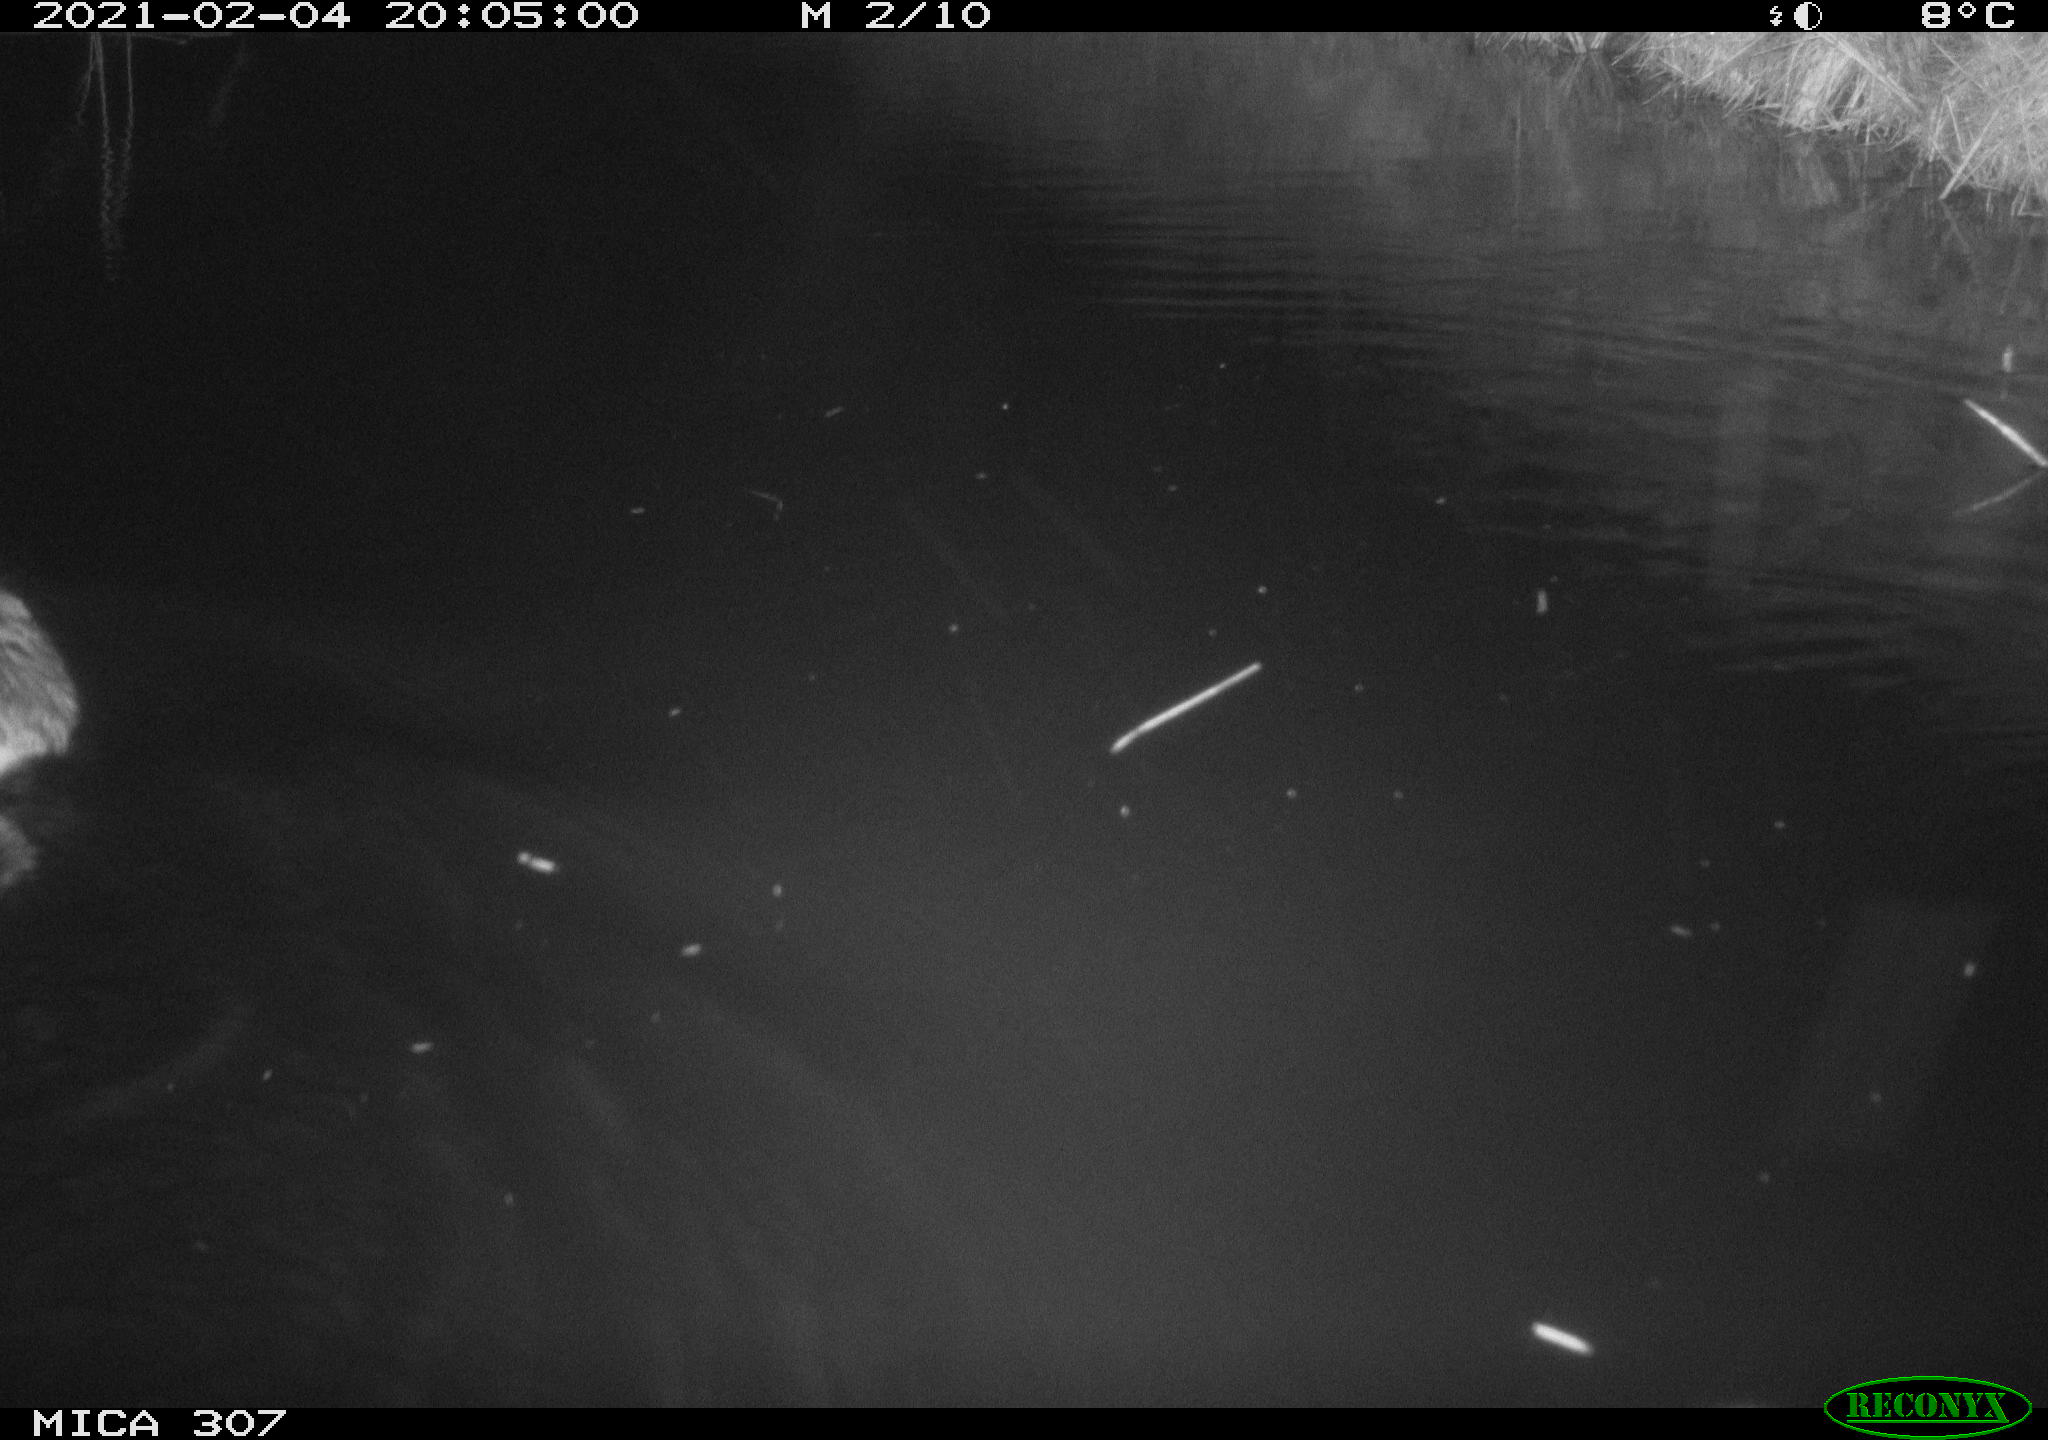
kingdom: Animalia
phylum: Chordata
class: Mammalia
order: Rodentia
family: Muridae
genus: Rattus
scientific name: Rattus norvegicus
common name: Brown rat
